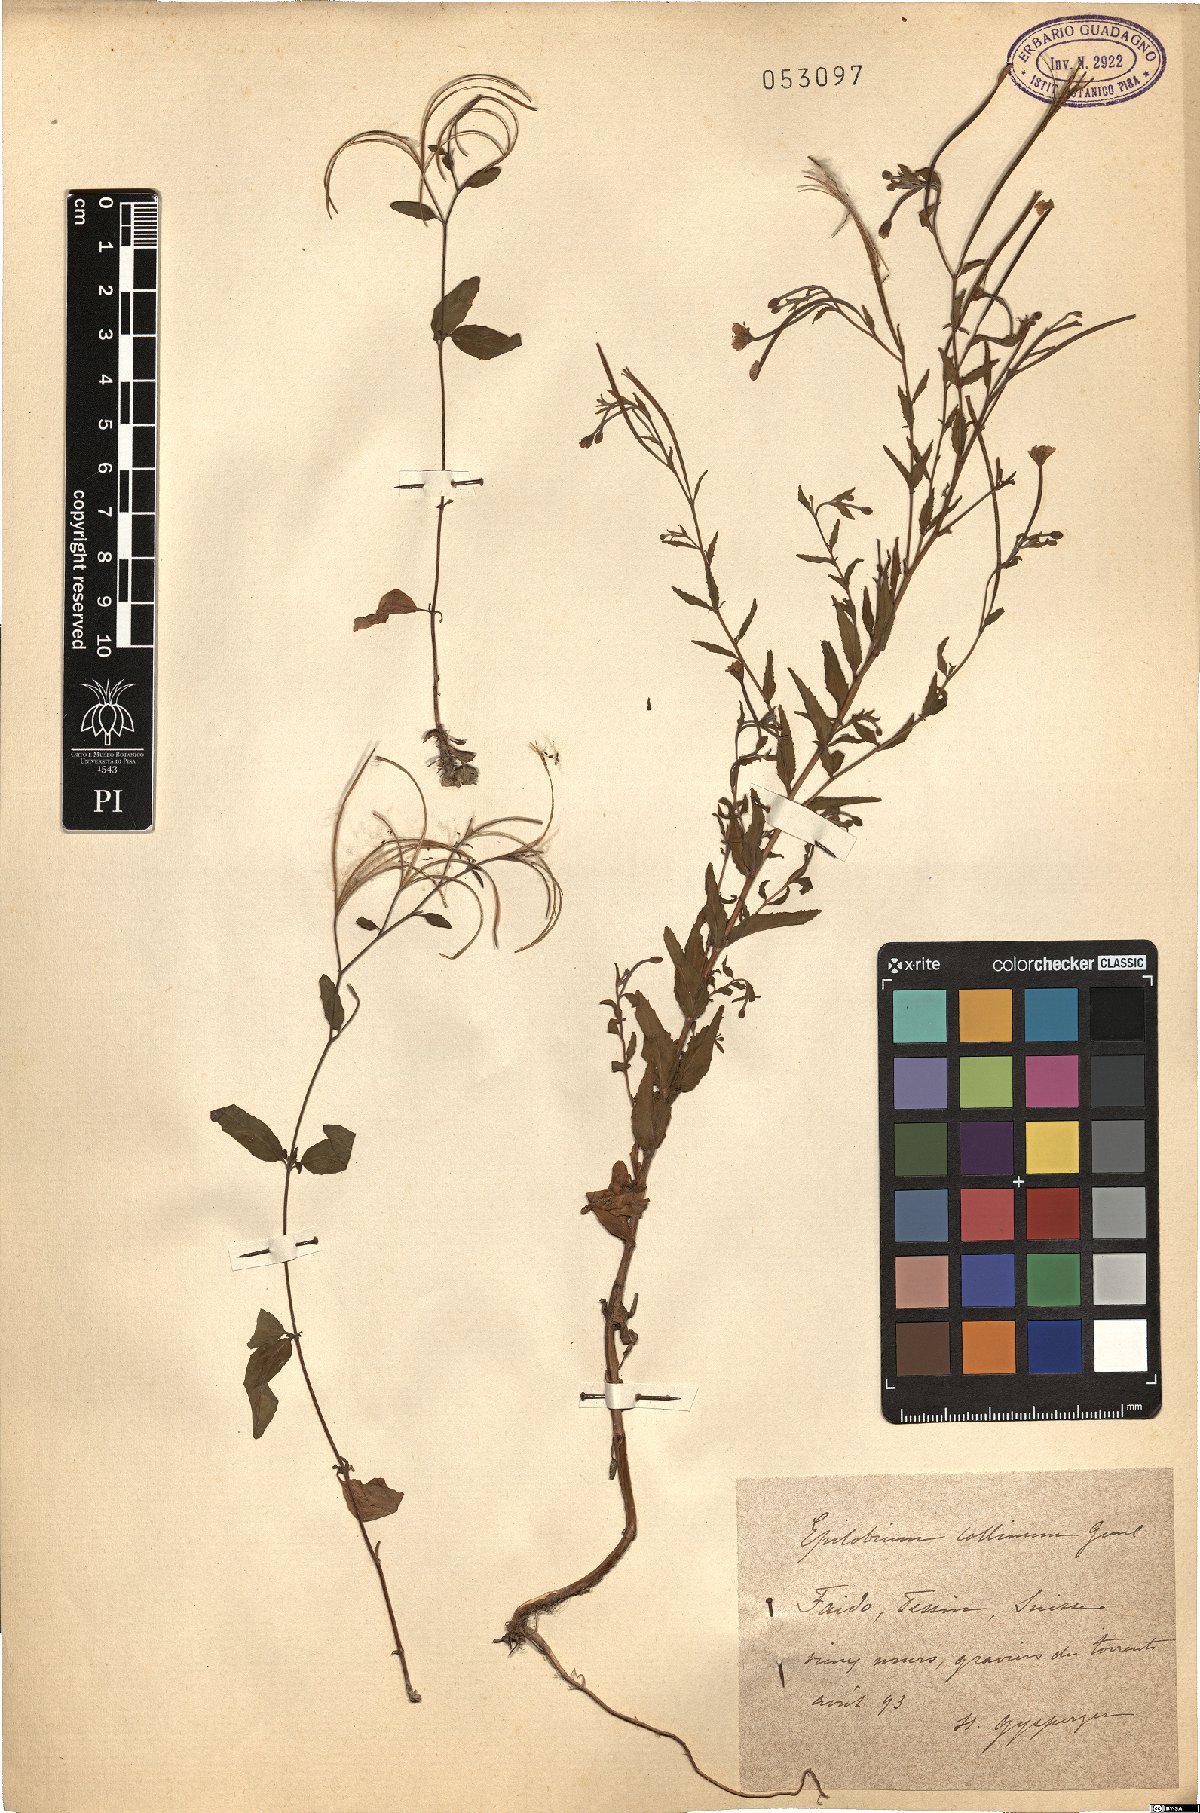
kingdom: Plantae
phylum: Tracheophyta
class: Magnoliopsida
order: Myrtales
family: Onagraceae
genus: Epilobium
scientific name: Epilobium collinum
